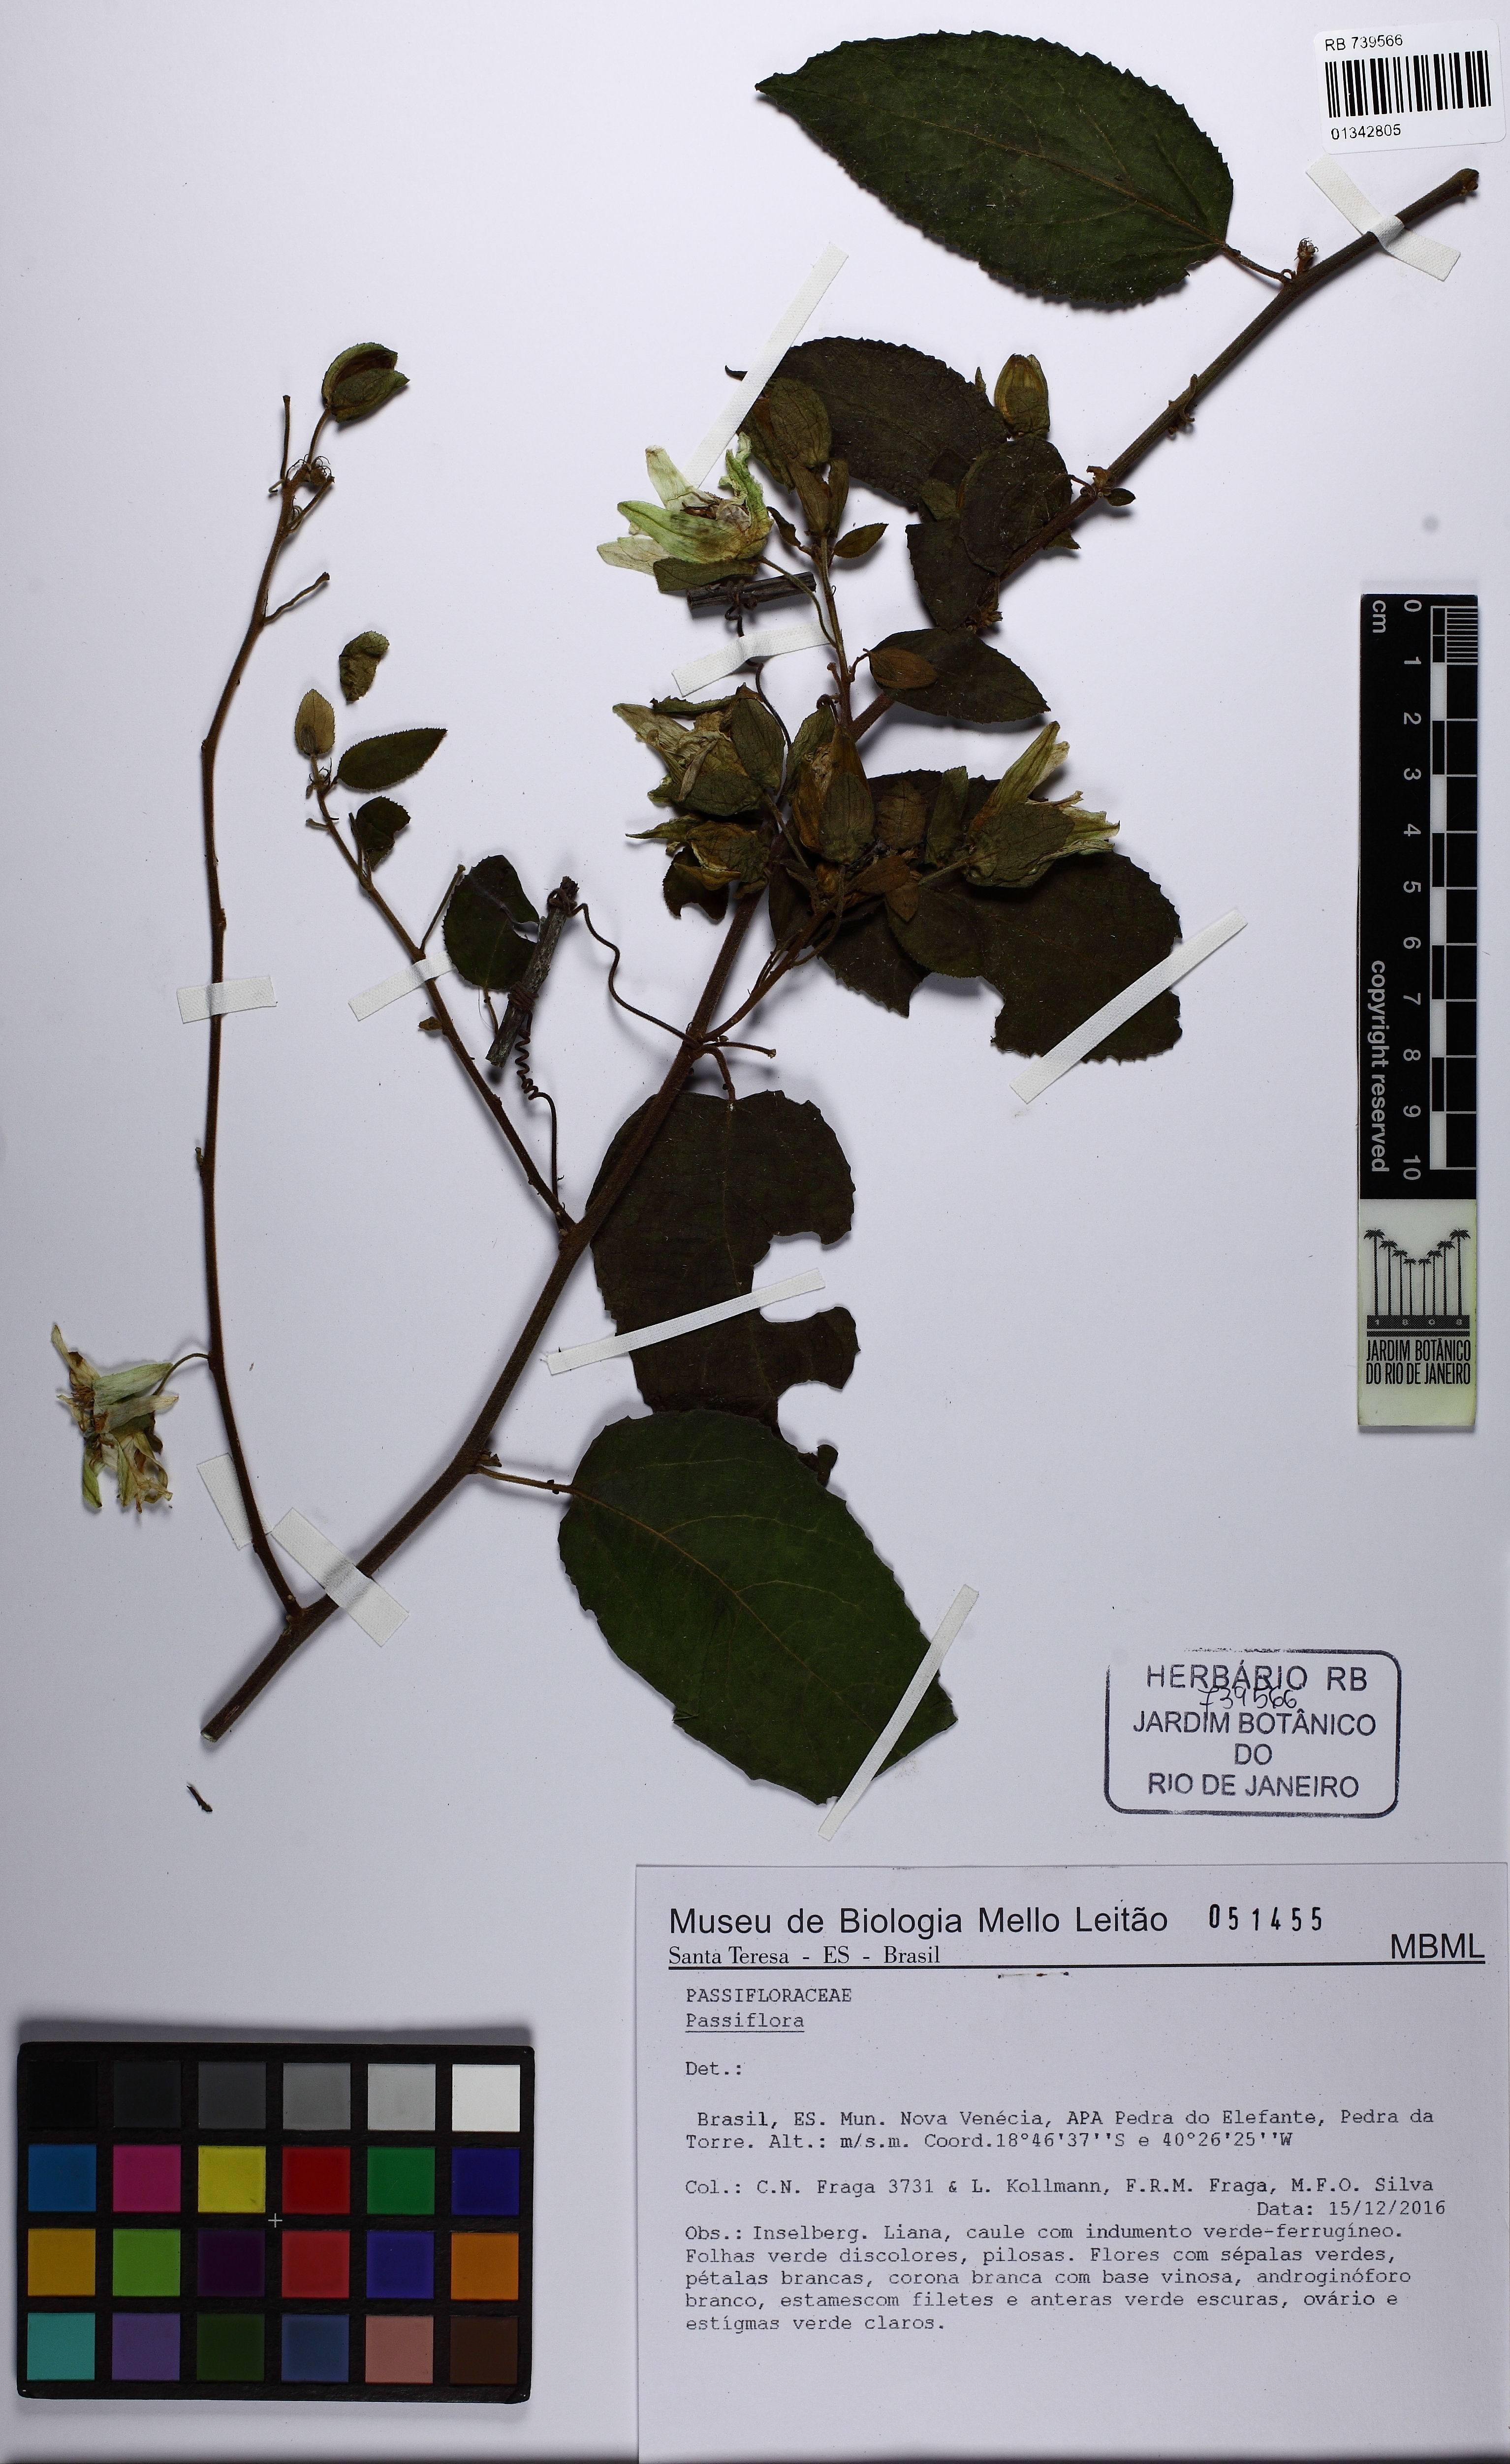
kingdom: Plantae
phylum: Tracheophyta
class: Magnoliopsida
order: Malpighiales
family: Passifloraceae
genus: Passiflora
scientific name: Passiflora
